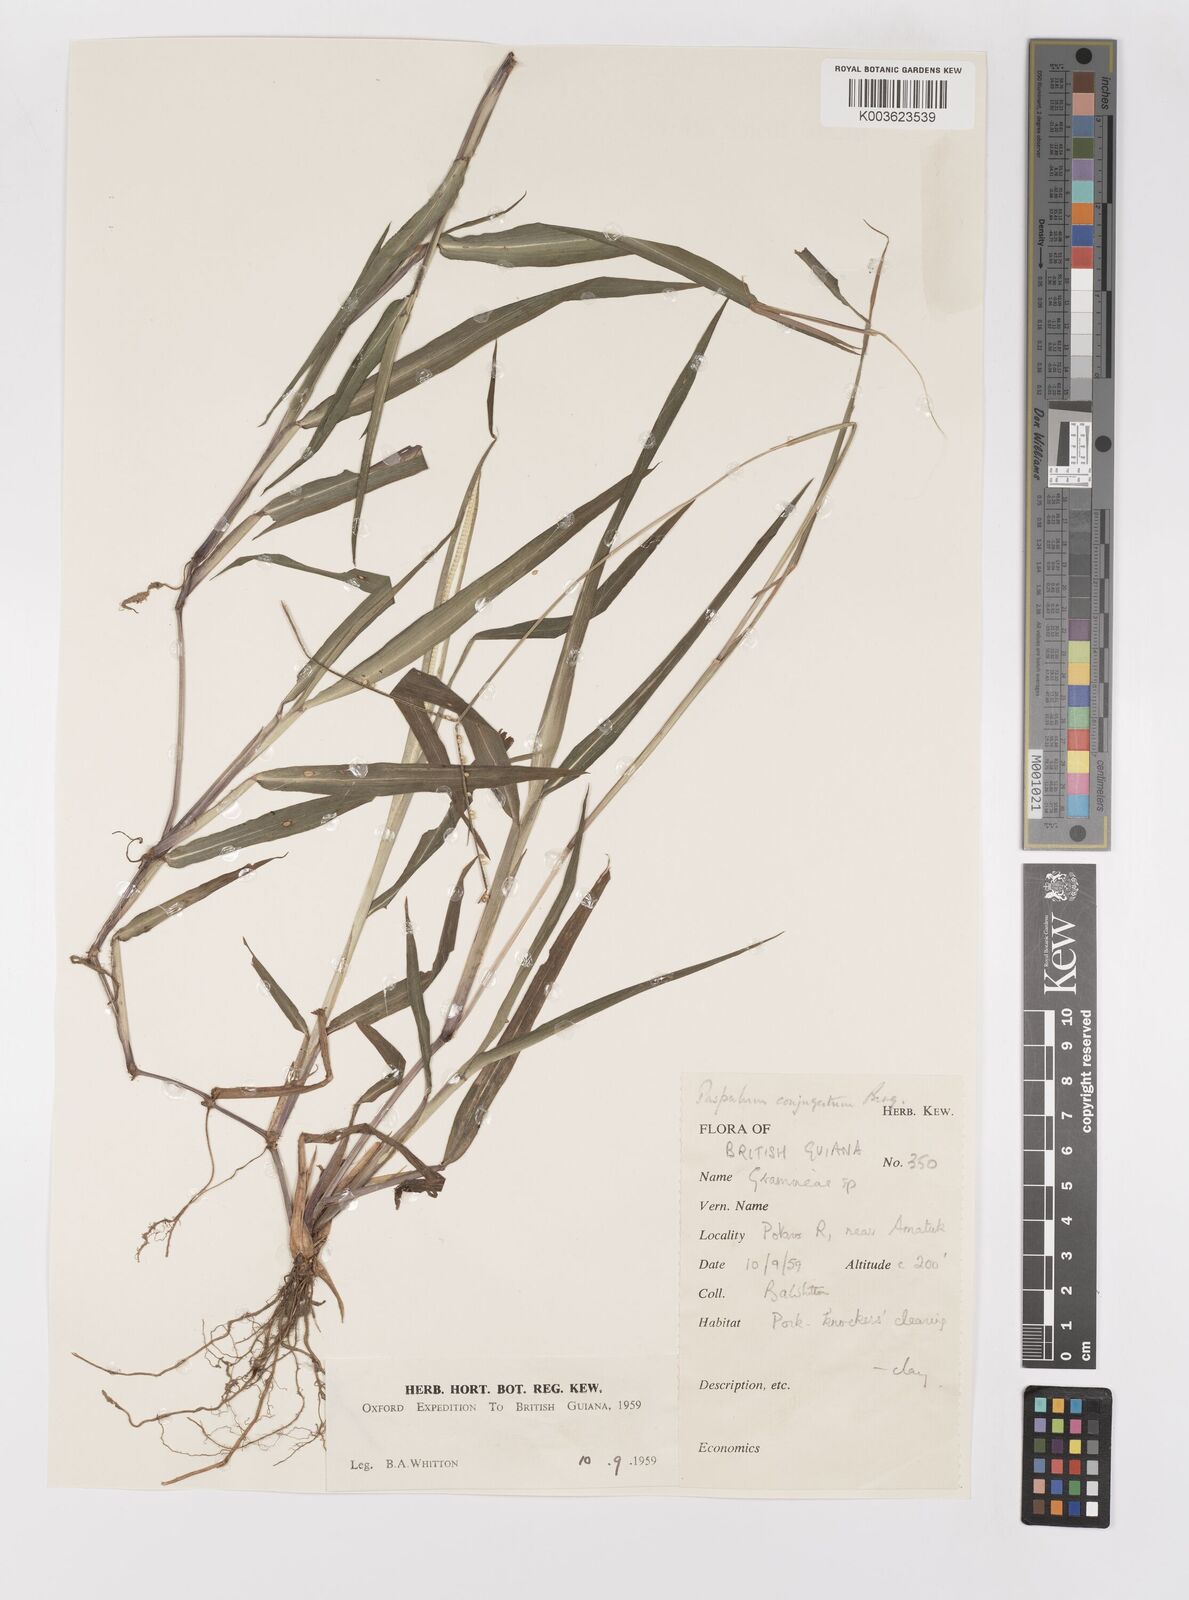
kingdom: Plantae
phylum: Tracheophyta
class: Liliopsida
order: Poales
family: Poaceae
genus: Paspalum
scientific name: Paspalum conjugatum
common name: Hilograss
